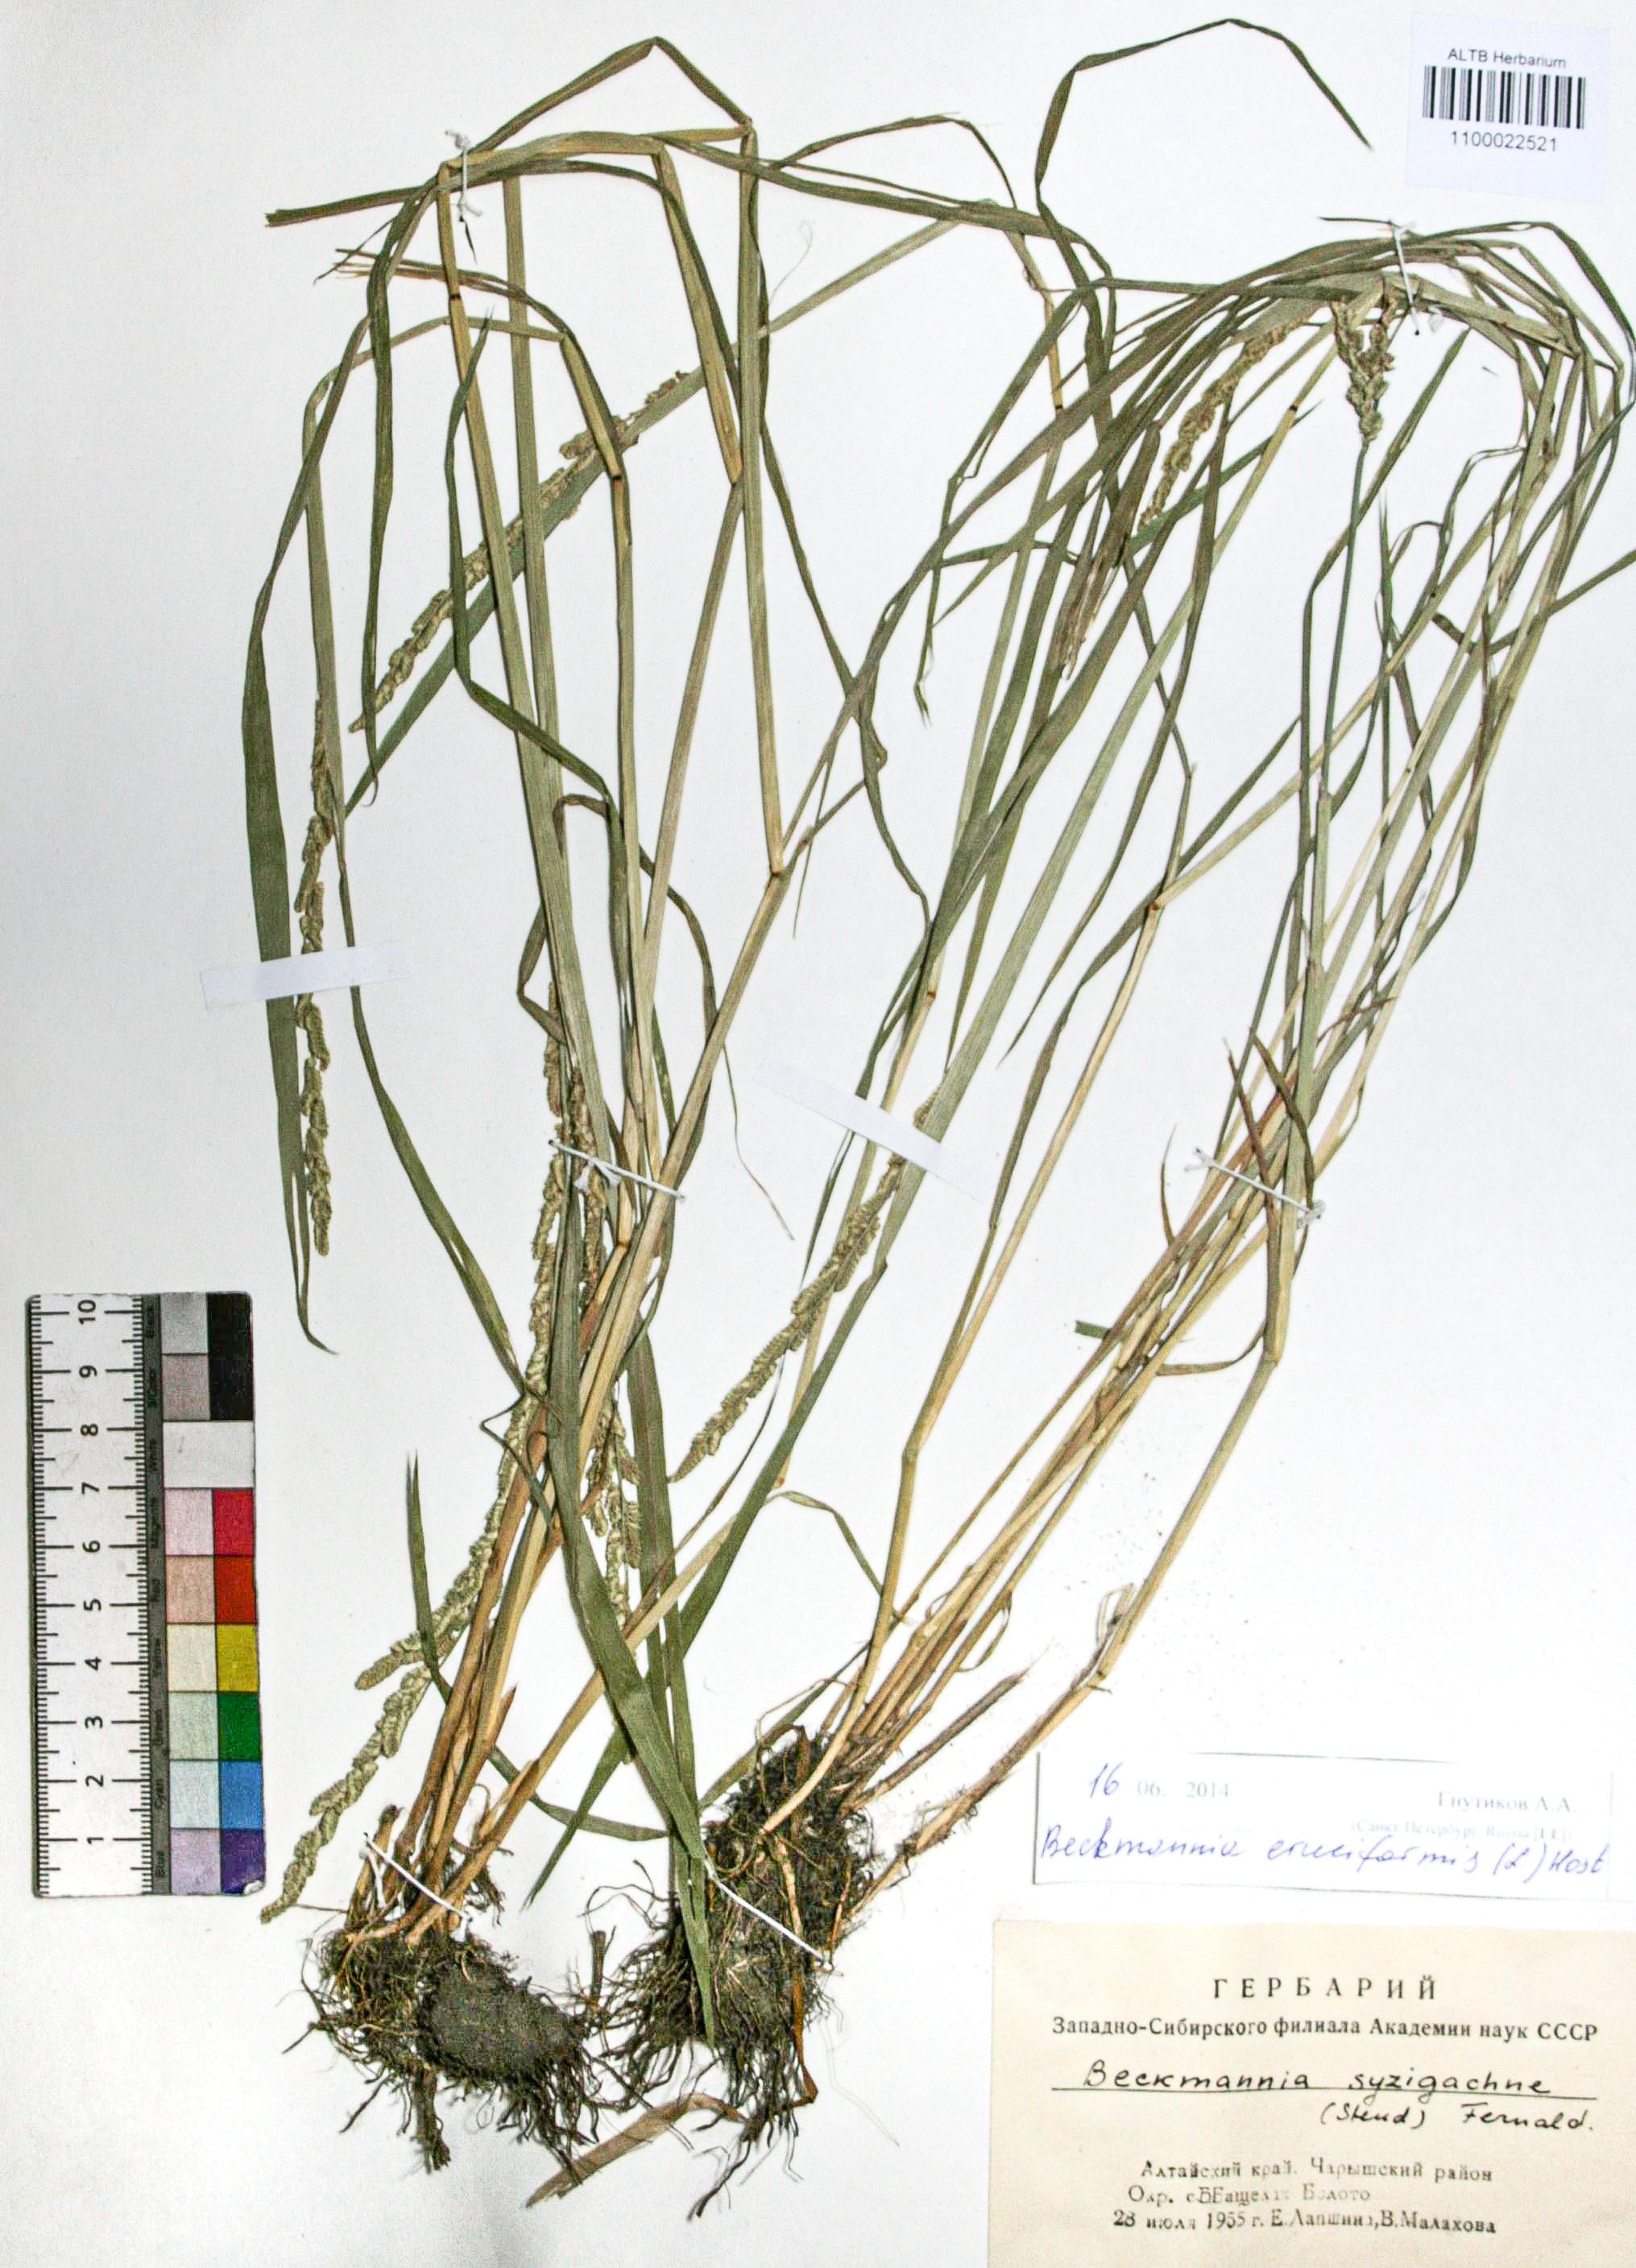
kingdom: Plantae
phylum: Tracheophyta
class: Liliopsida
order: Poales
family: Poaceae
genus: Beckmannia
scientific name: Beckmannia syzigachne
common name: American slough-grass
